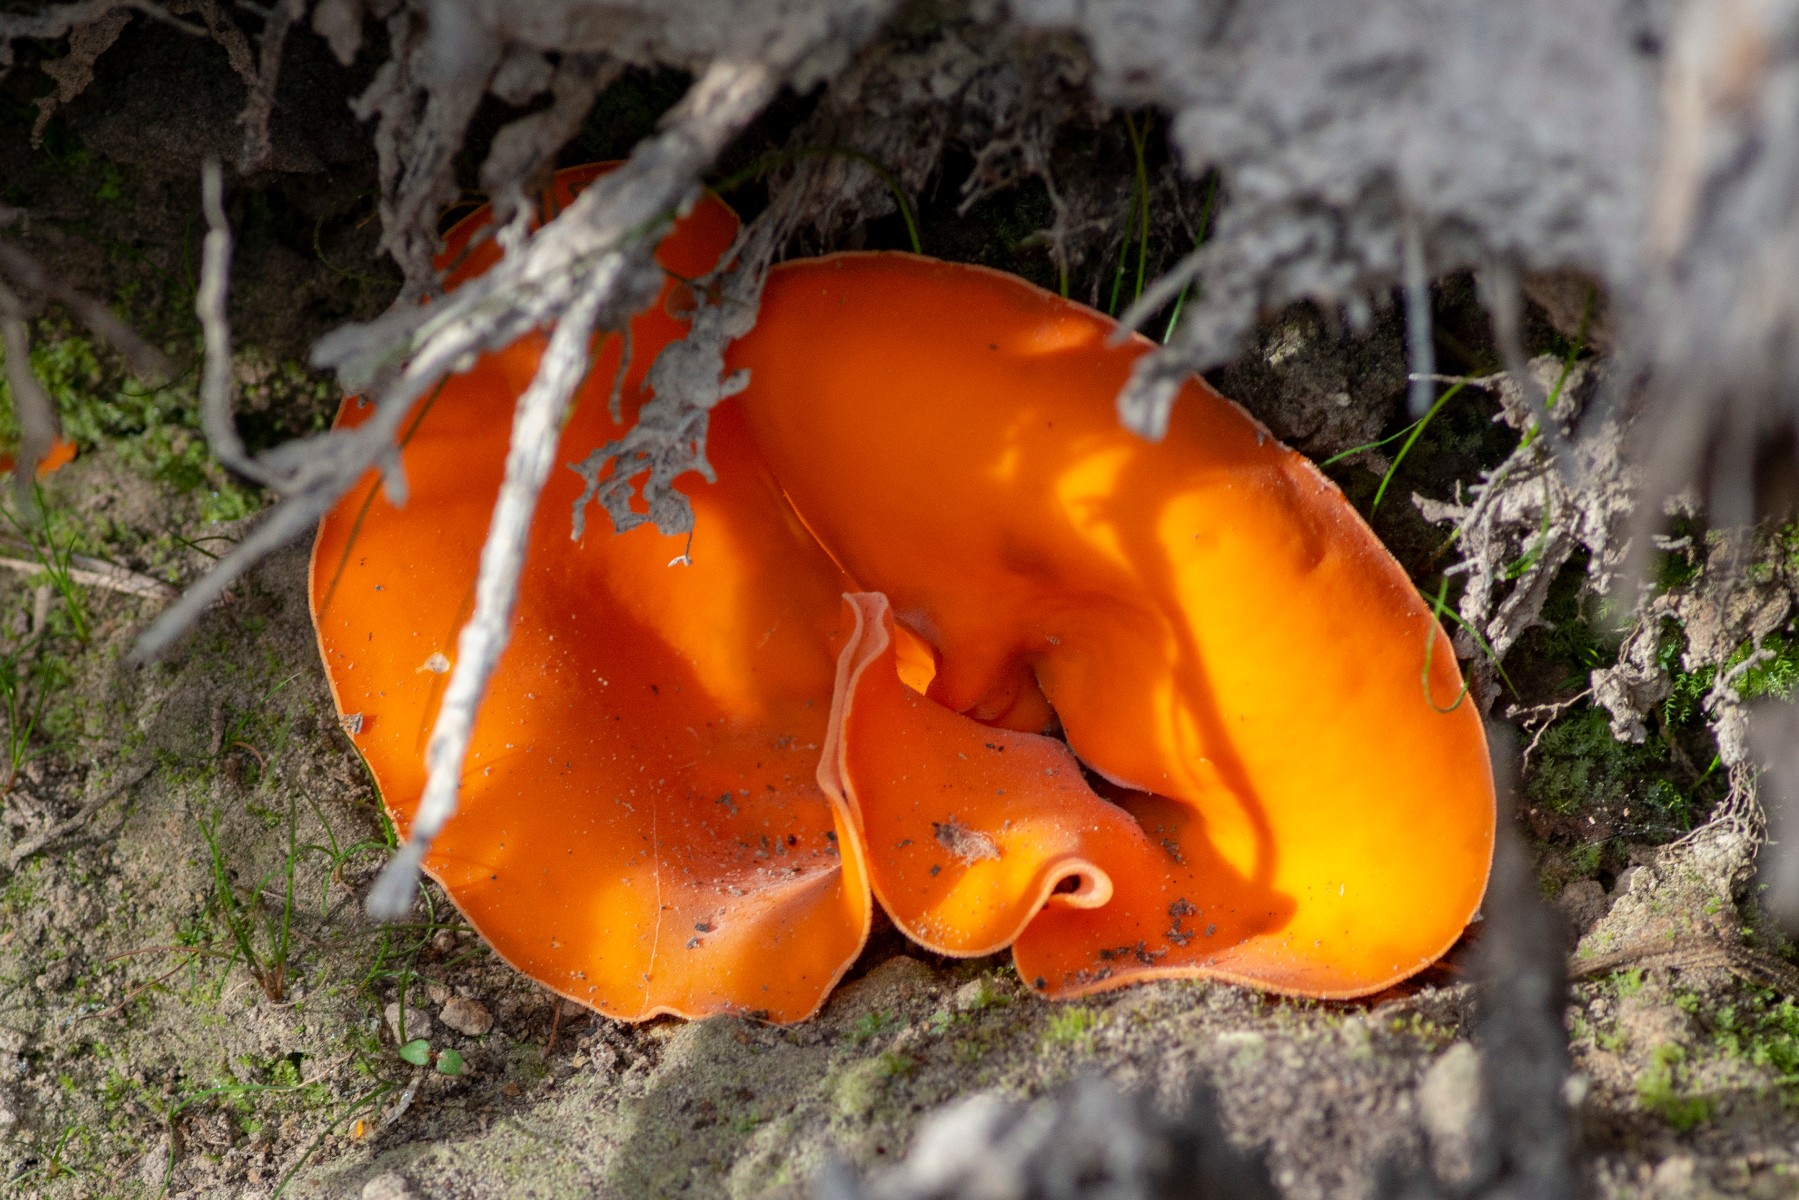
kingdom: Fungi
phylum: Ascomycota
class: Pezizomycetes
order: Pezizales
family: Pyronemataceae
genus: Aleuria
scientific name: Aleuria aurantia
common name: almindelig orangebæger
